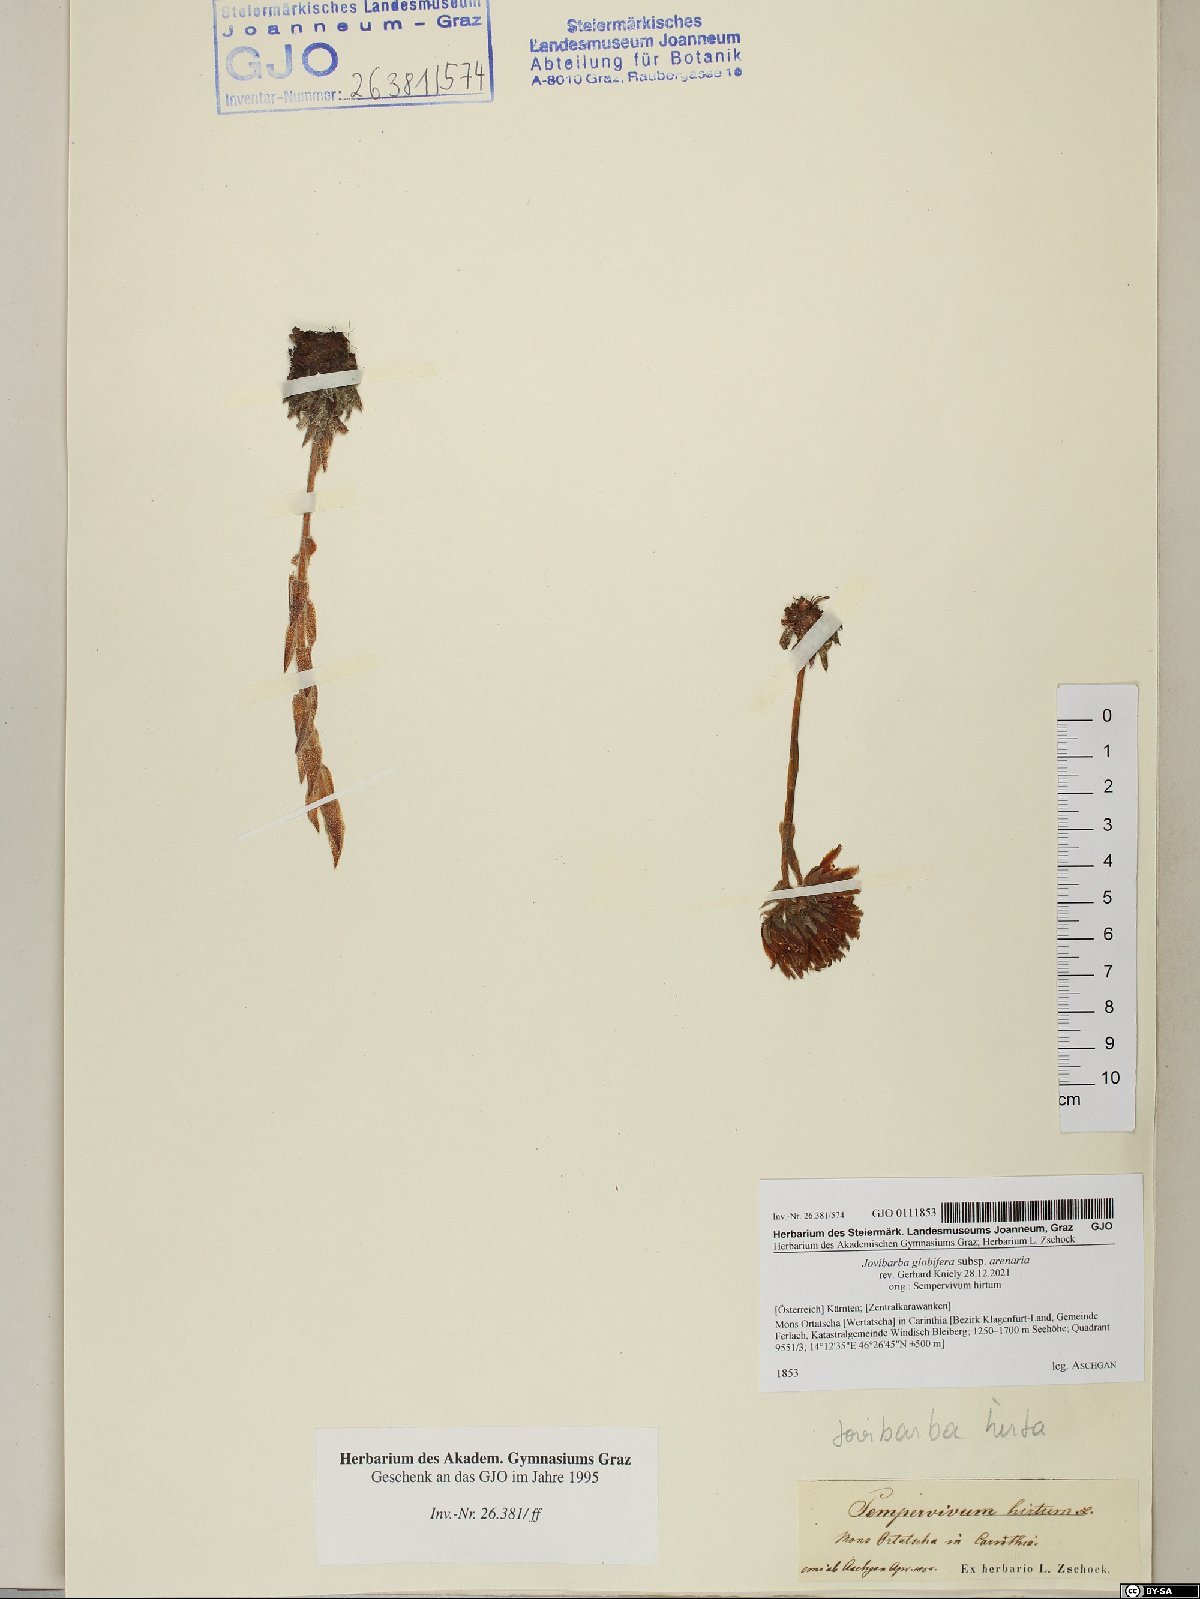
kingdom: Plantae
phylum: Tracheophyta
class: Magnoliopsida
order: Saxifragales
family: Crassulaceae
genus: Sempervivum
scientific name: Sempervivum globiferum
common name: Rolling hen-and-chicks
